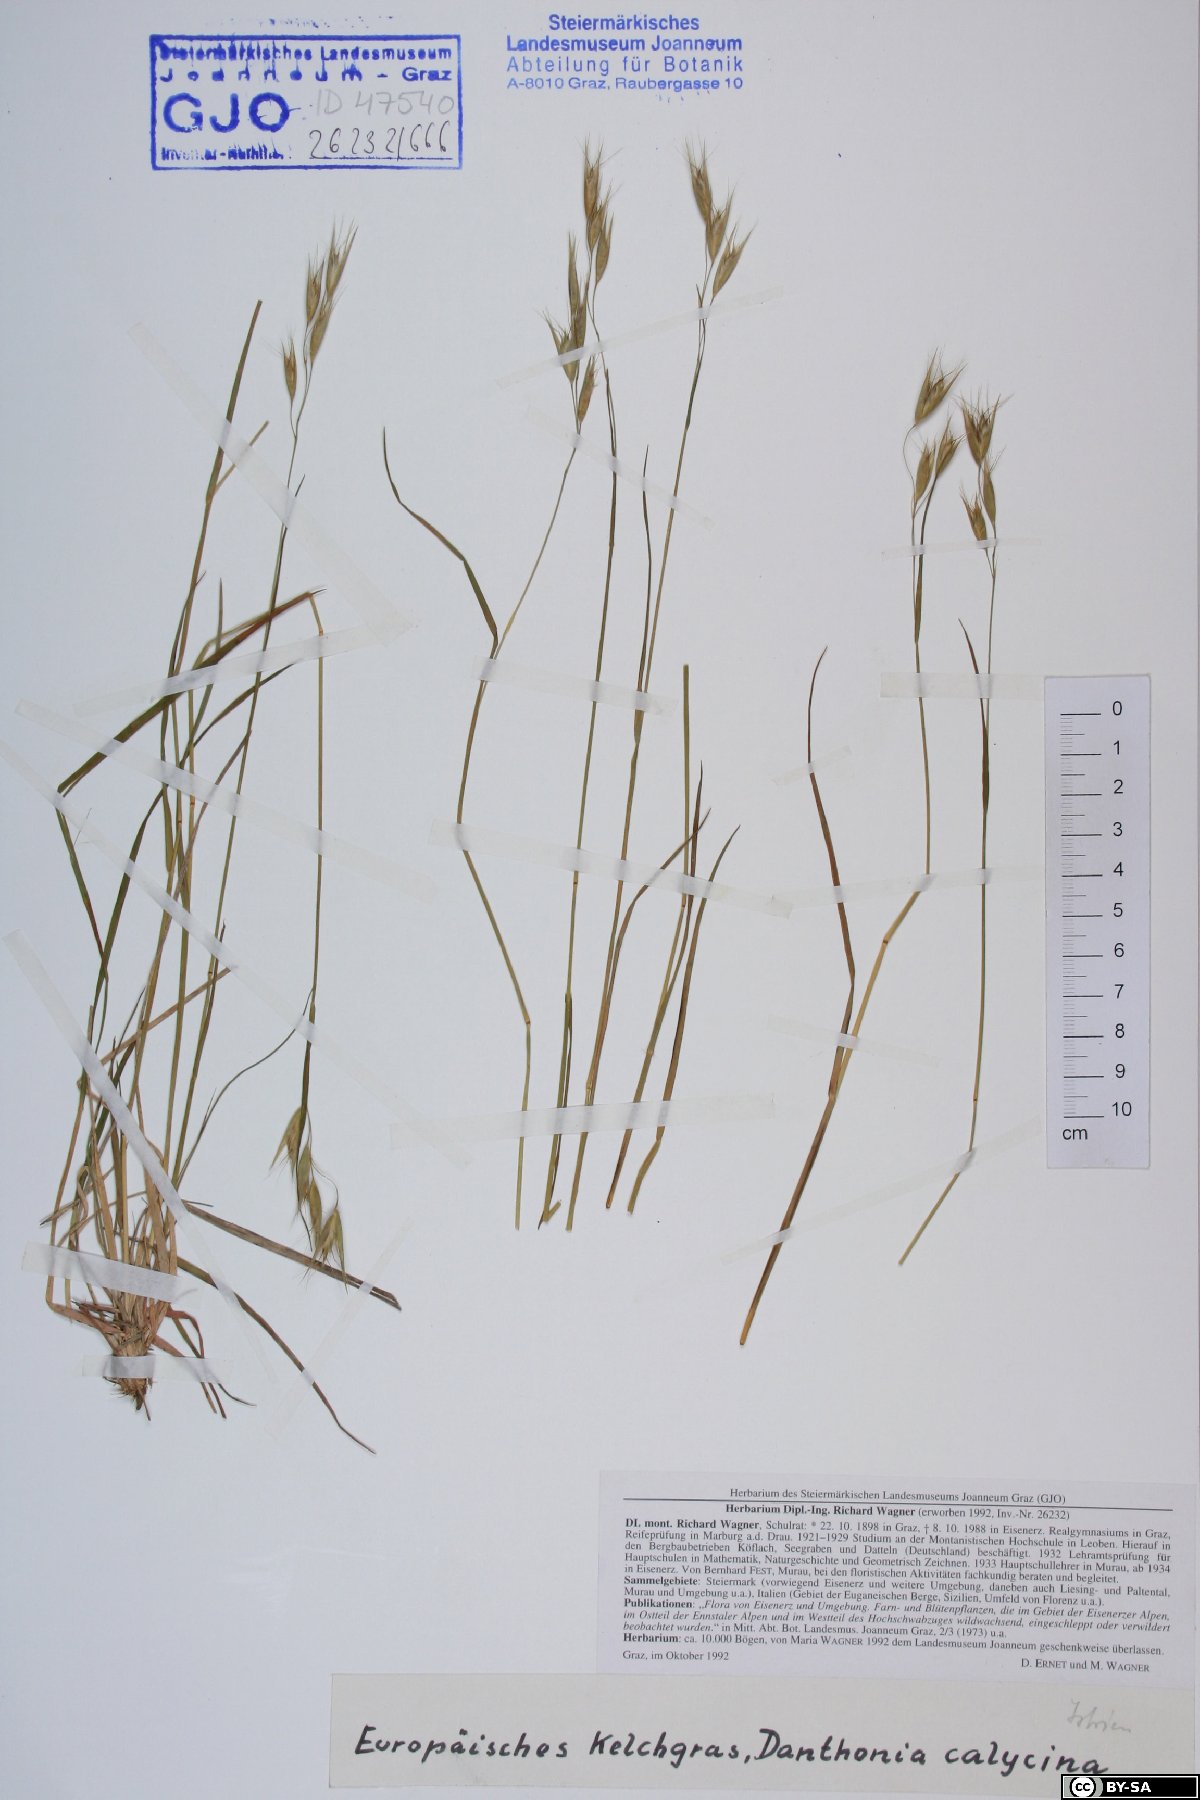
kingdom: Plantae
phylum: Tracheophyta
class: Liliopsida
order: Poales
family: Poaceae
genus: Danthonia
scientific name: Danthonia alpina
